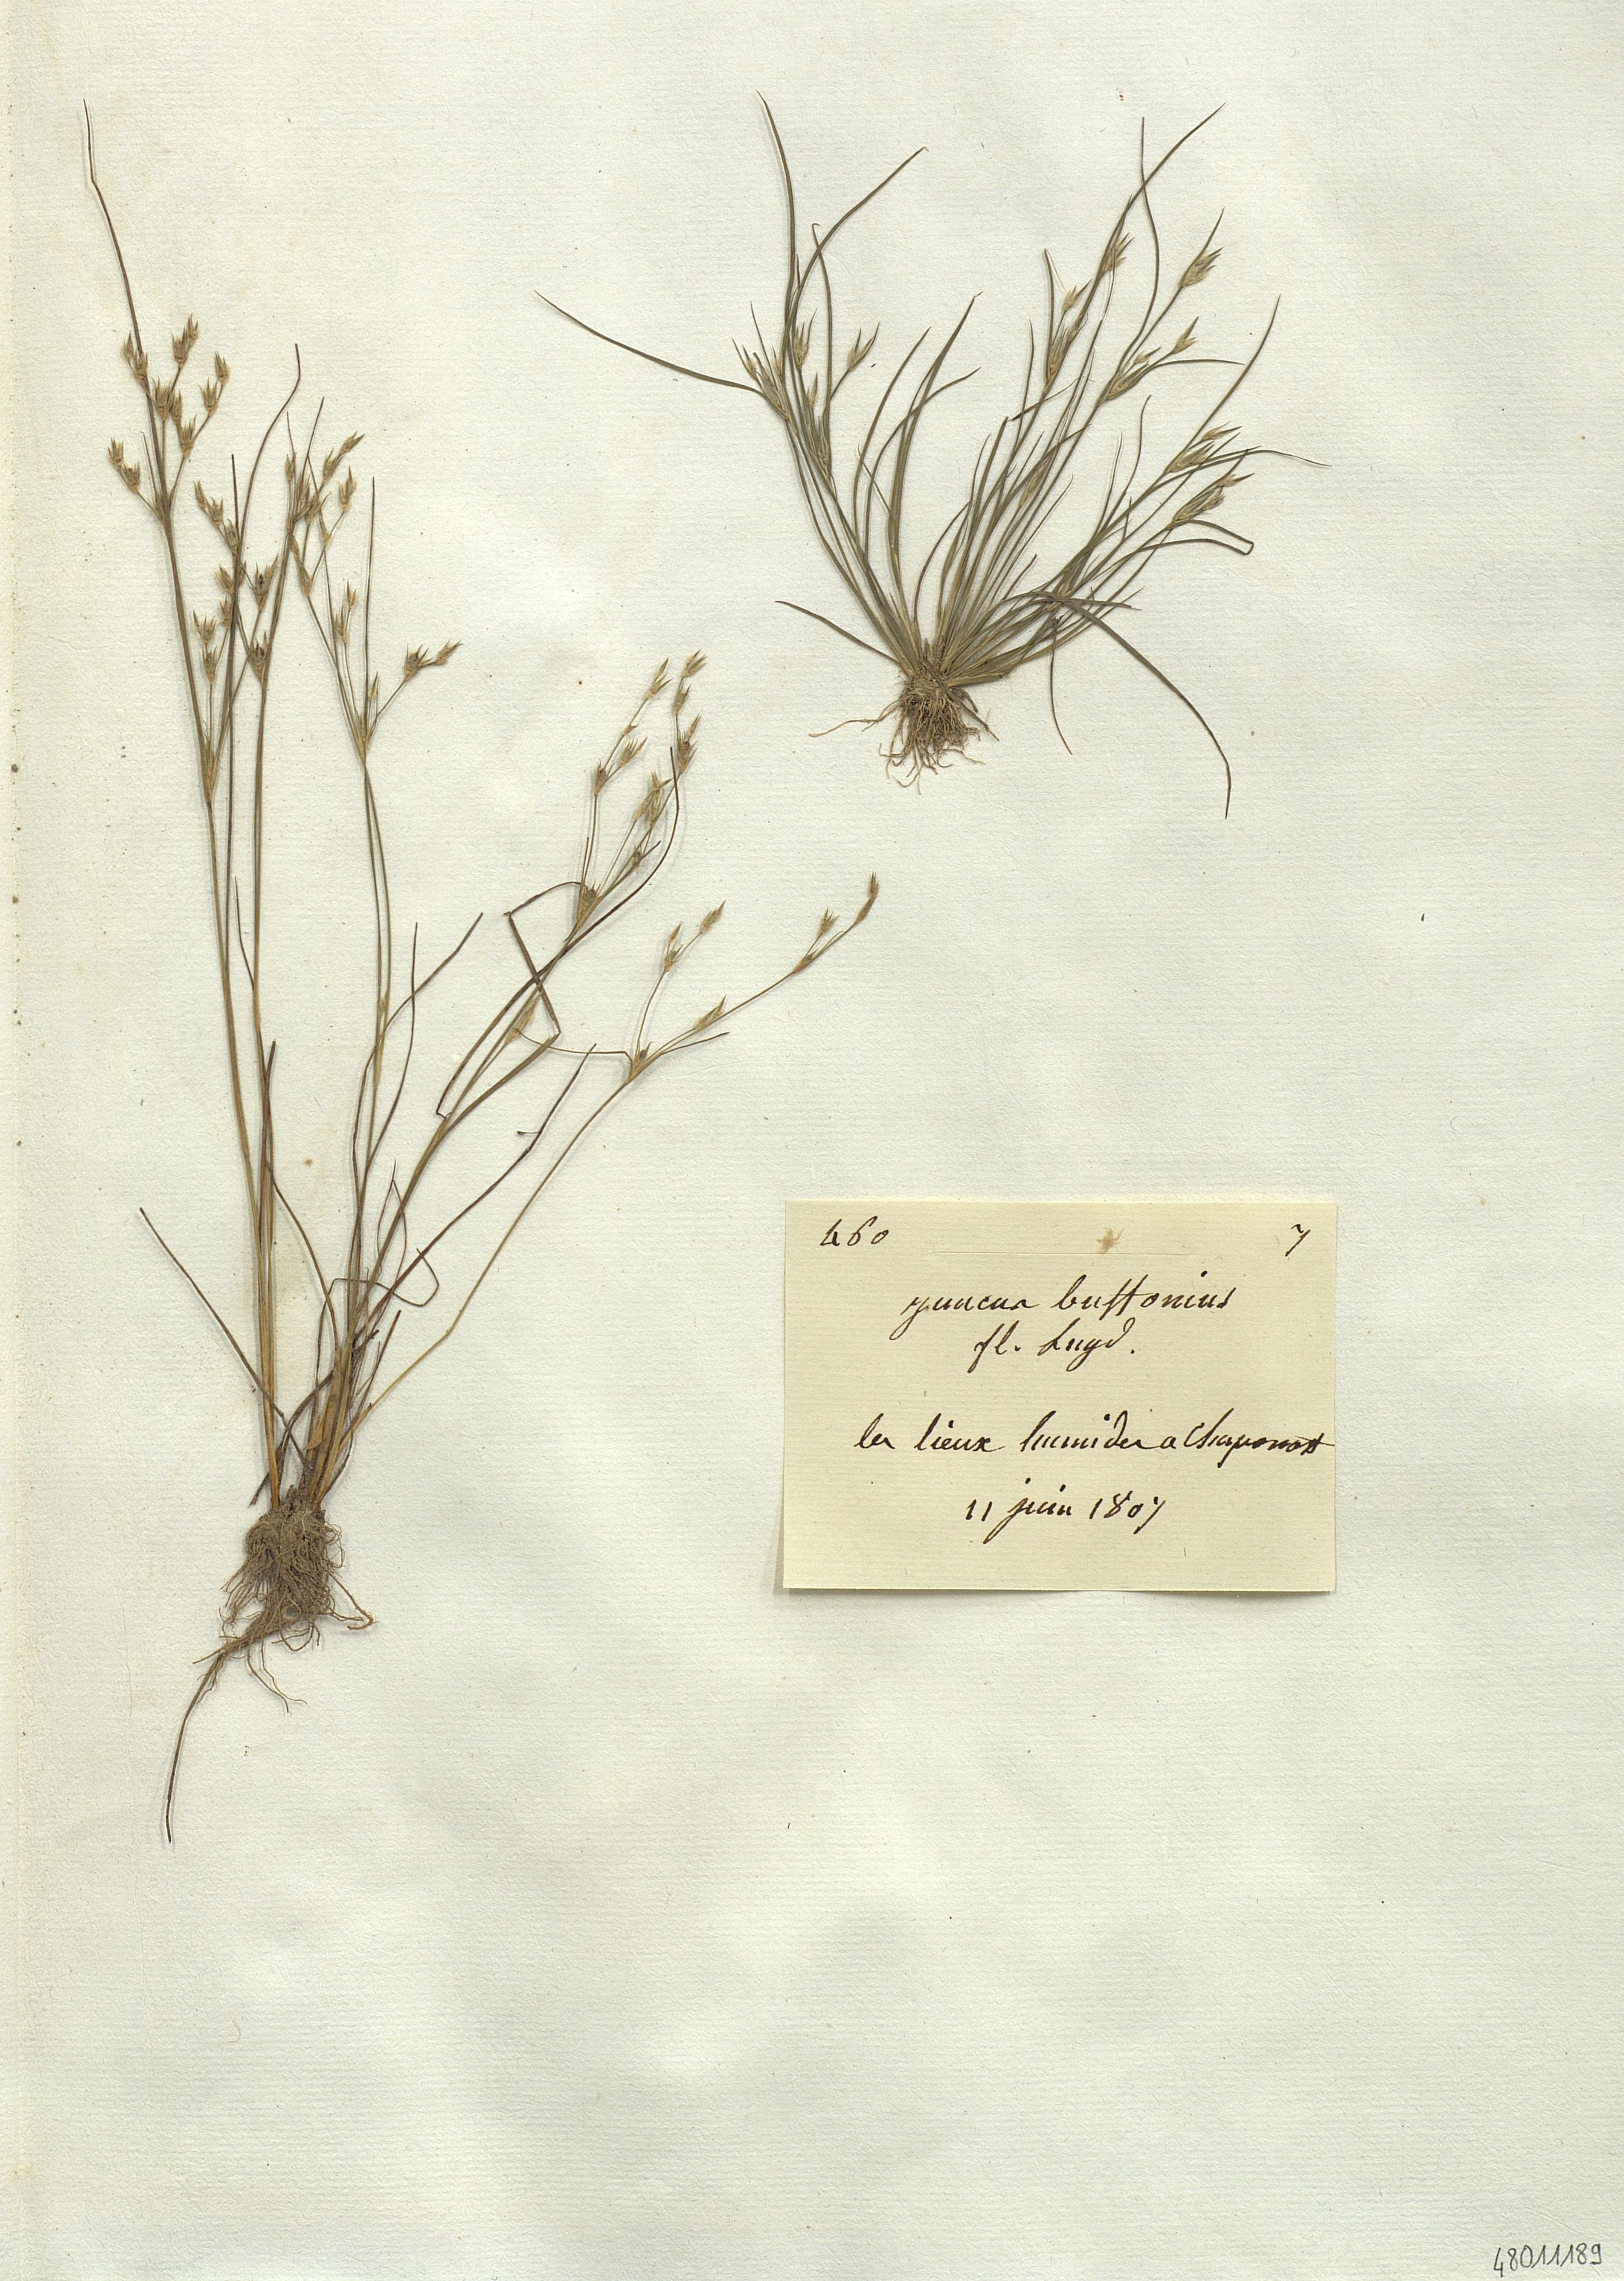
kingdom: Plantae
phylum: Tracheophyta
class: Liliopsida
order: Poales
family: Juncaceae
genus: Juncus
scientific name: Juncus bufonius
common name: Toad rush
